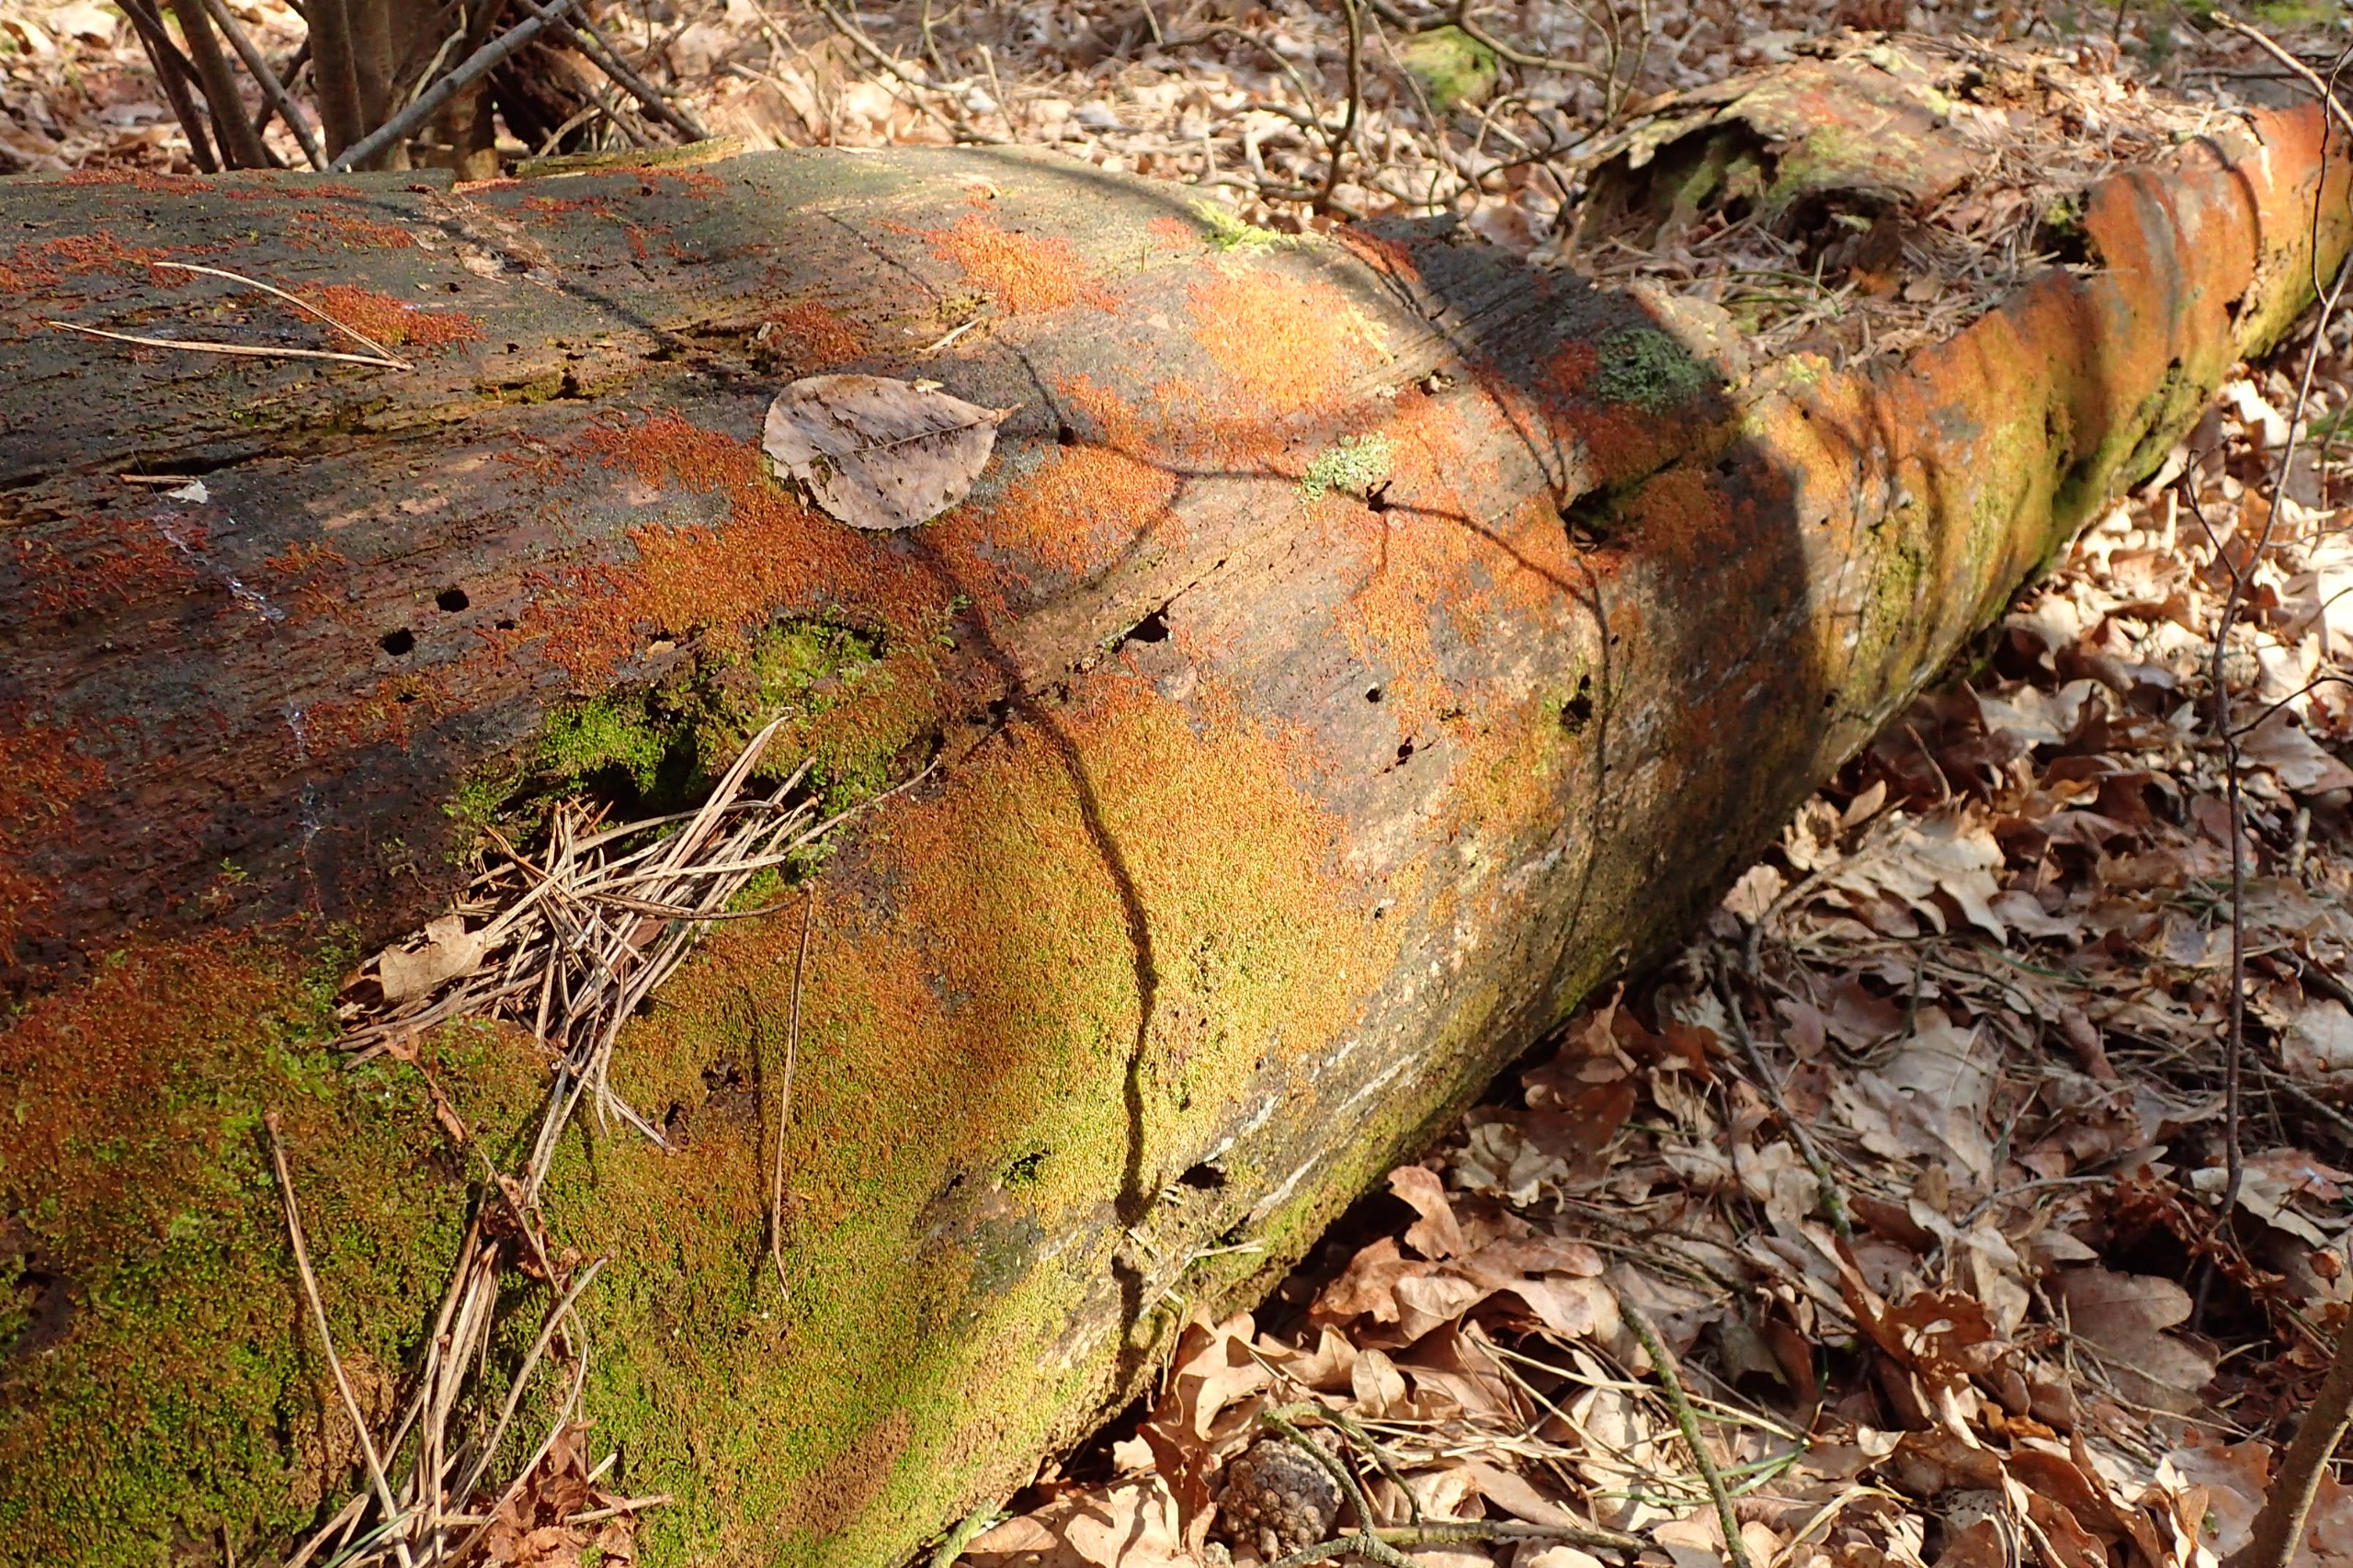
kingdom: Plantae
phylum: Marchantiophyta
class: Jungermanniopsida
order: Jungermanniales
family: Cephaloziaceae
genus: Nowellia
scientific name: Nowellia curvifolia
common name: Krumbladet stødmos
